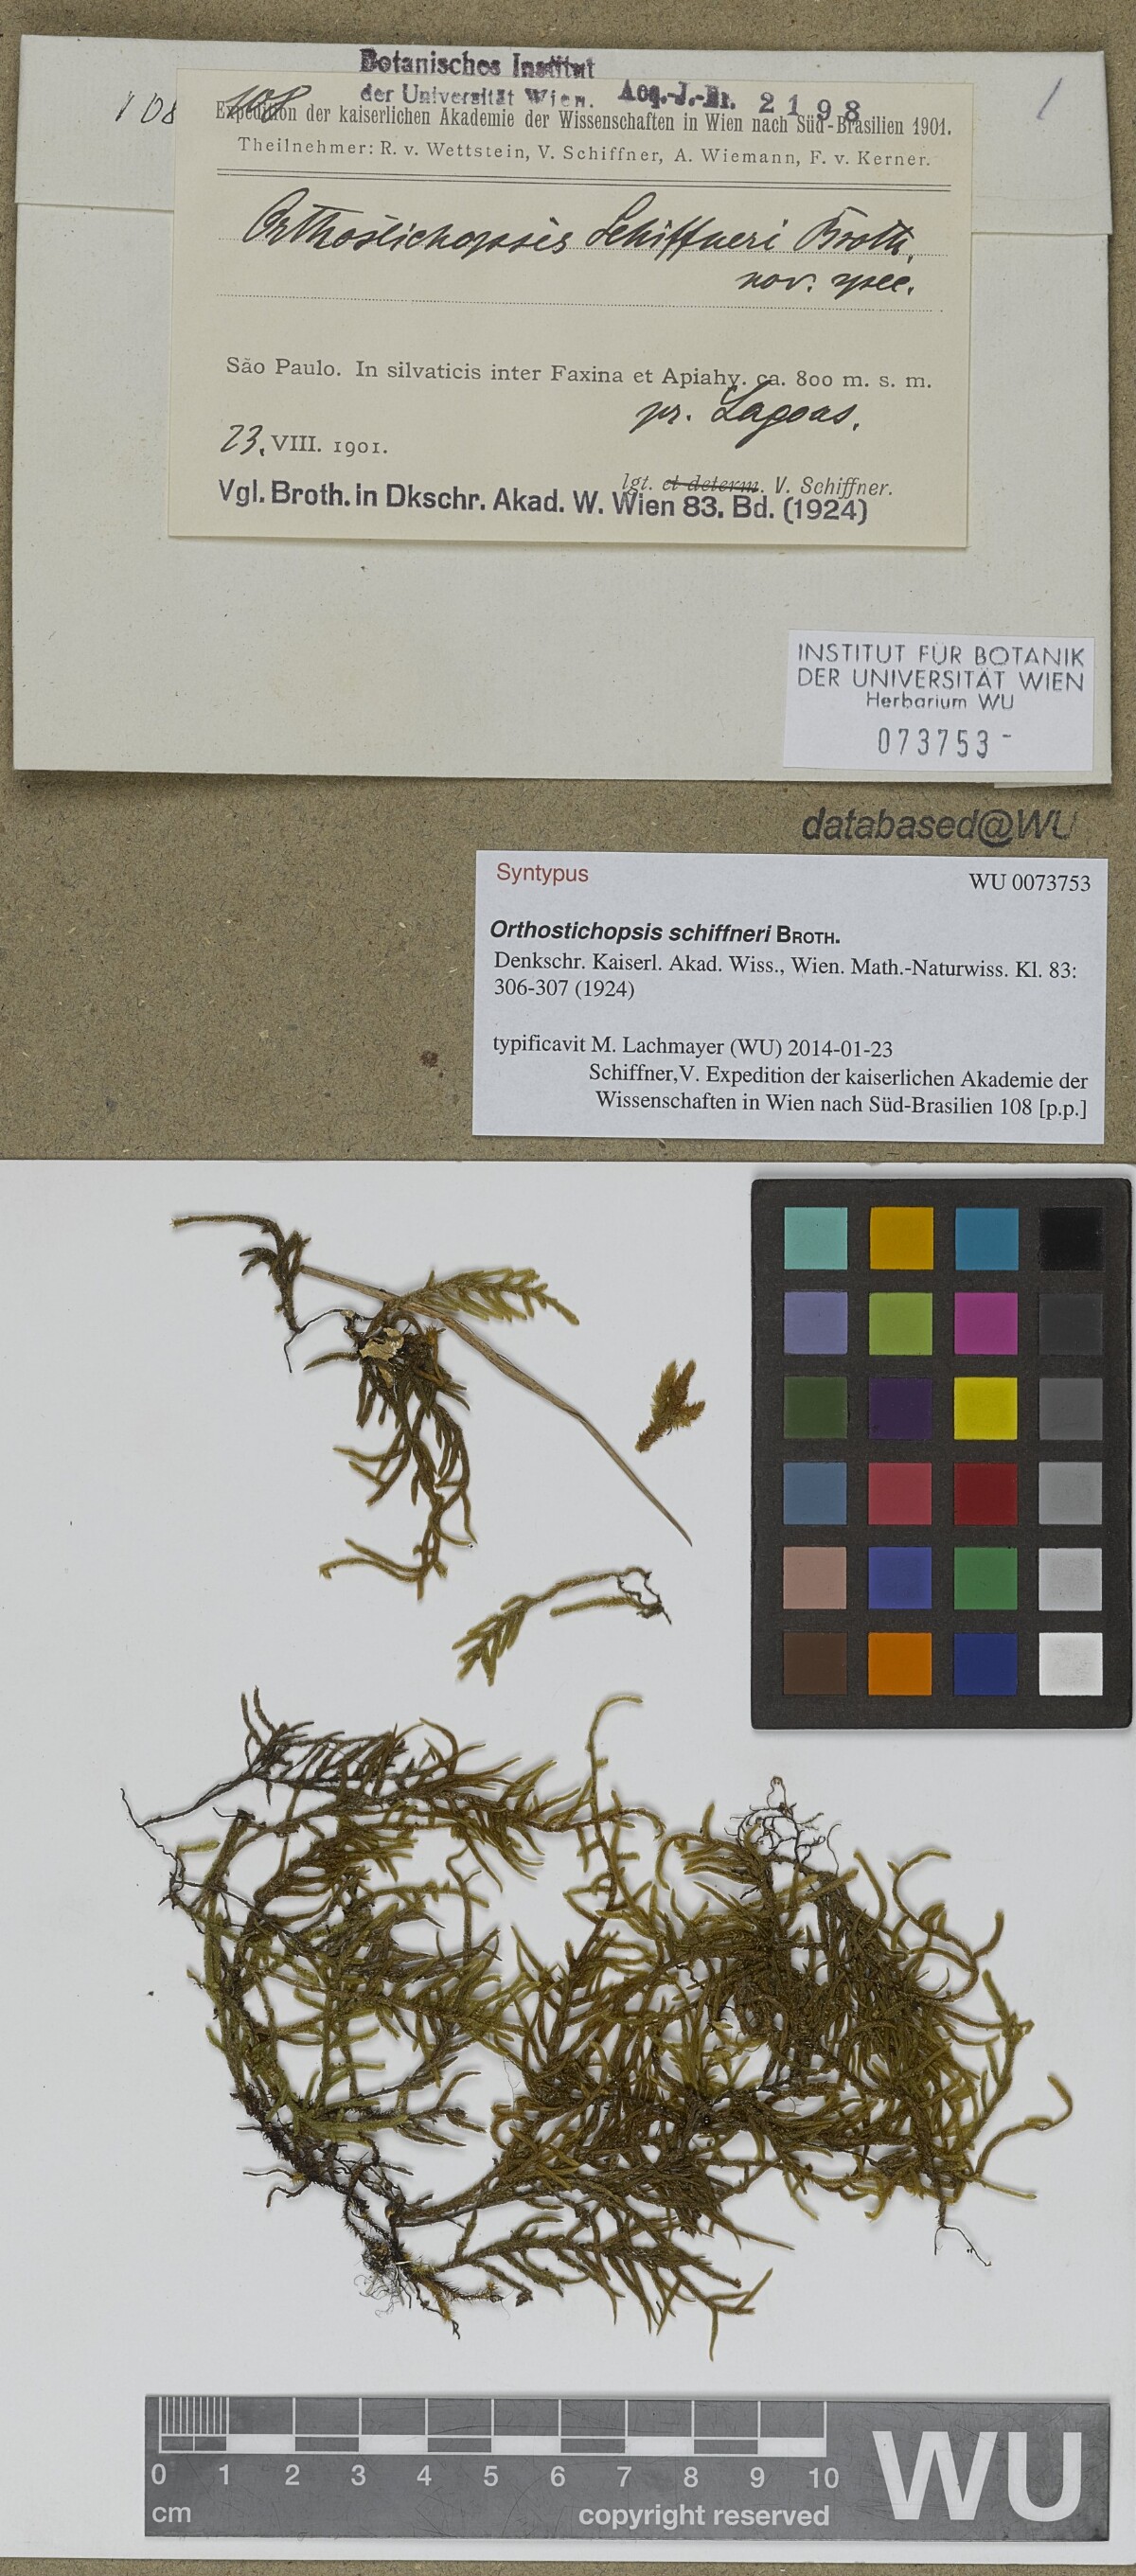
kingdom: Plantae
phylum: Bryophyta
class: Bryopsida
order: Hypnales
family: Pterobryaceae
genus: Orthostichopsis
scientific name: Orthostichopsis tenuis
